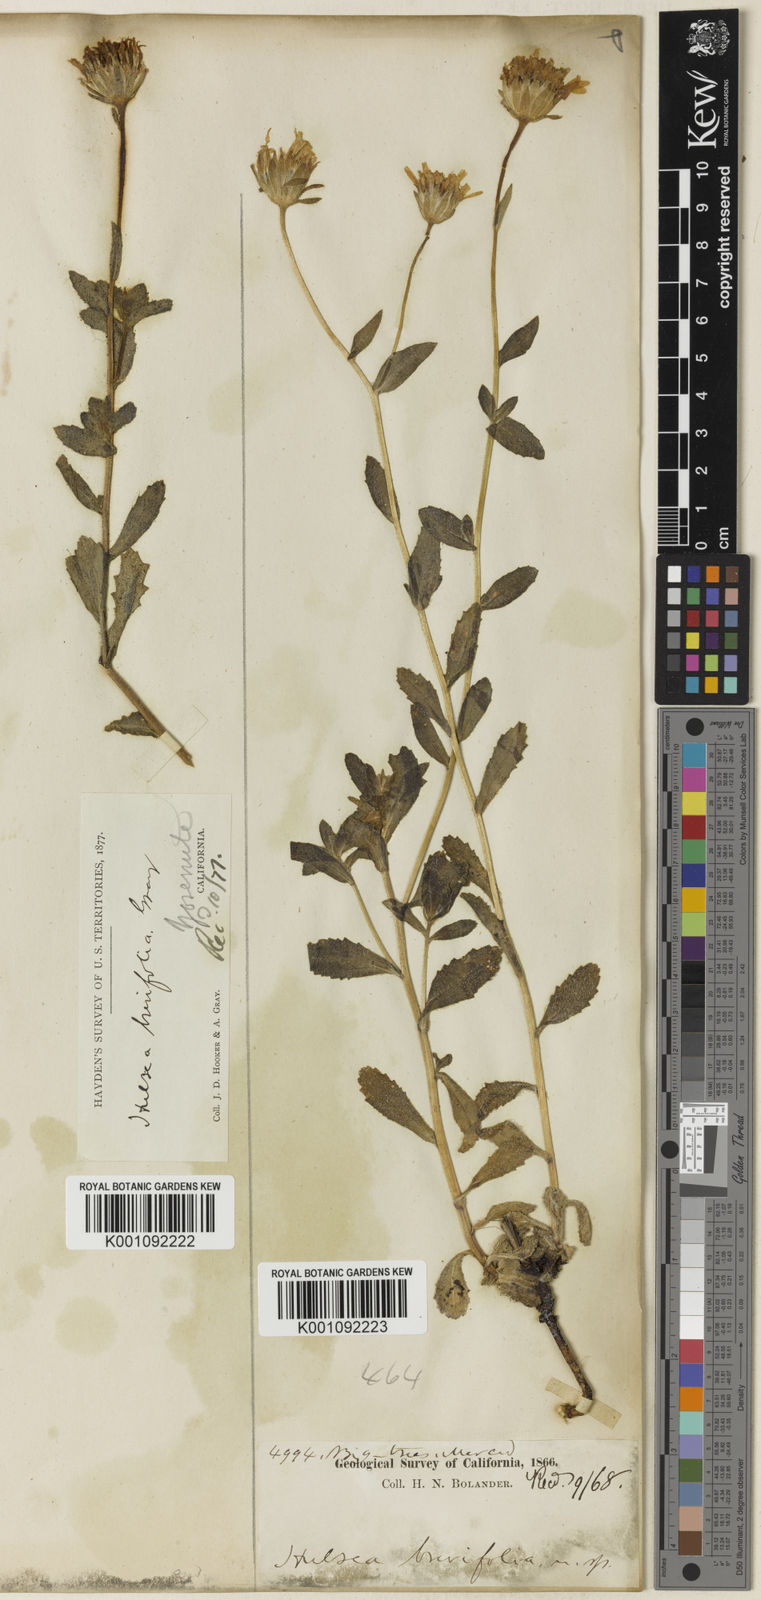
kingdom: Plantae
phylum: Tracheophyta
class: Magnoliopsida
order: Asterales
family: Asteraceae
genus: Hulsea
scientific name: Hulsea brevifolia
